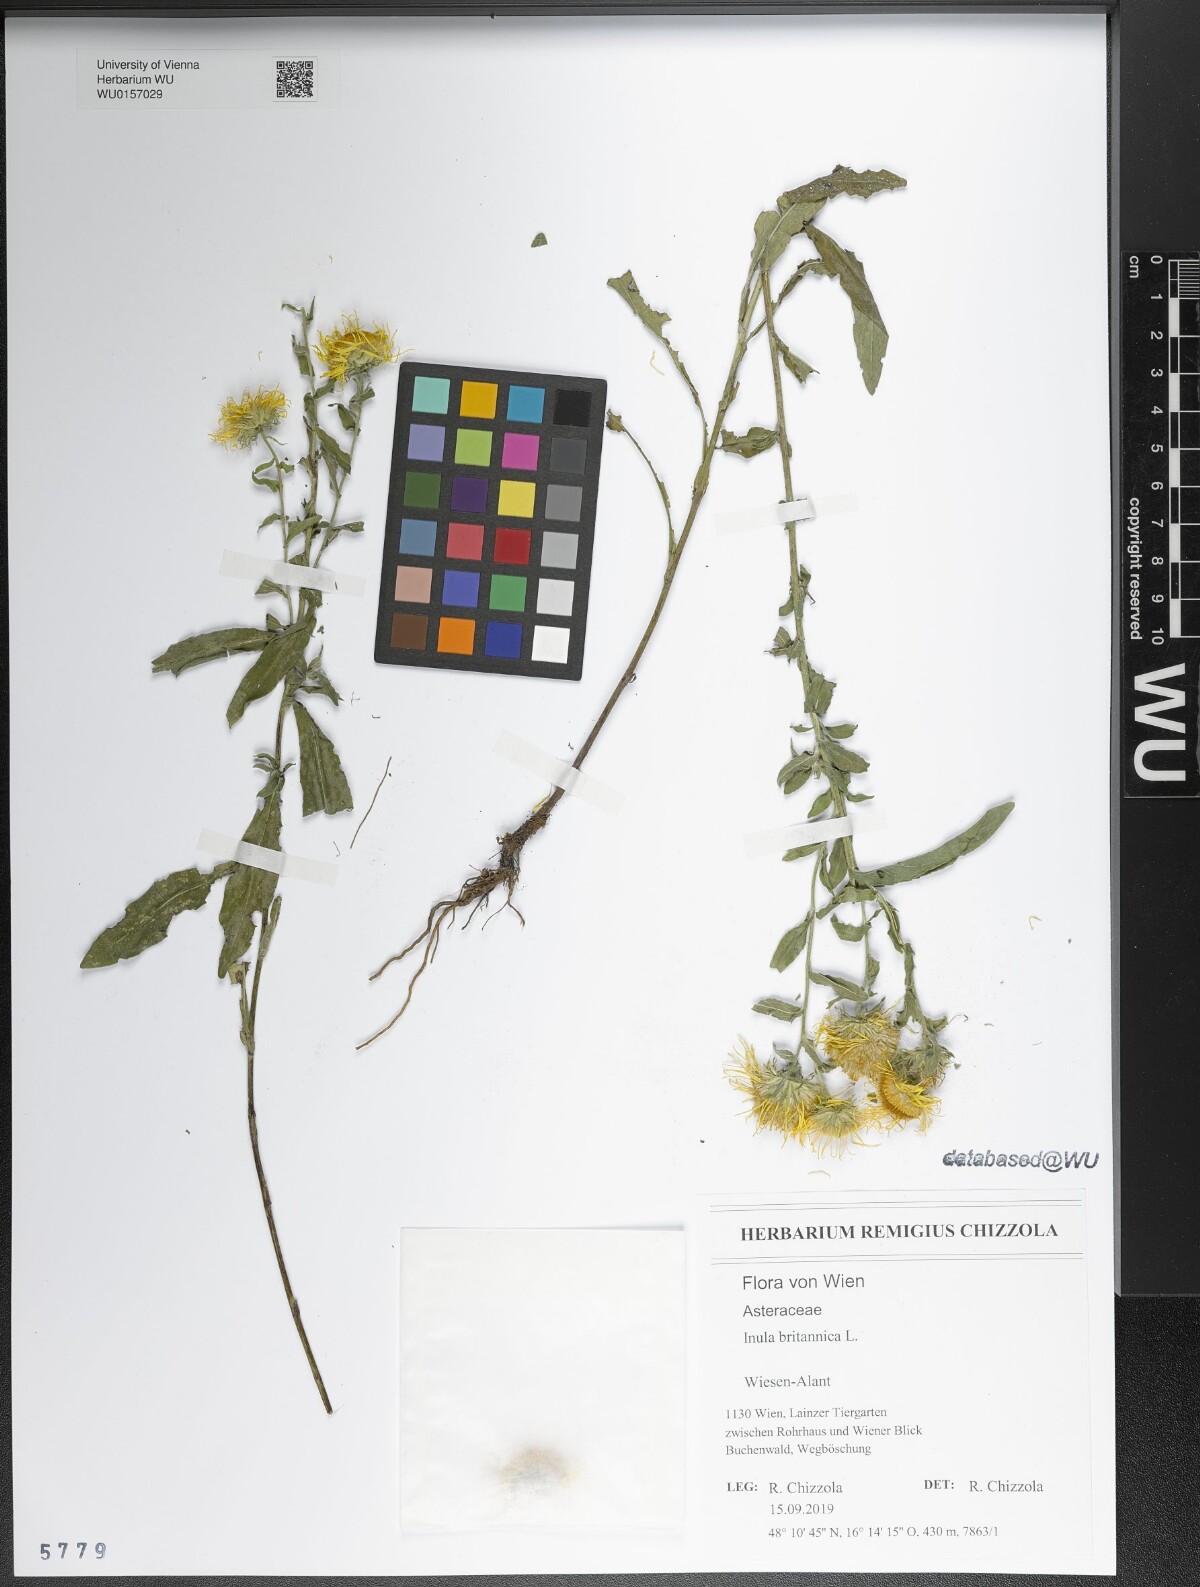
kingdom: Plantae
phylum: Tracheophyta
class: Magnoliopsida
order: Asterales
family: Asteraceae
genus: Pentanema
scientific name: Pentanema britannicum
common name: British elecampane
